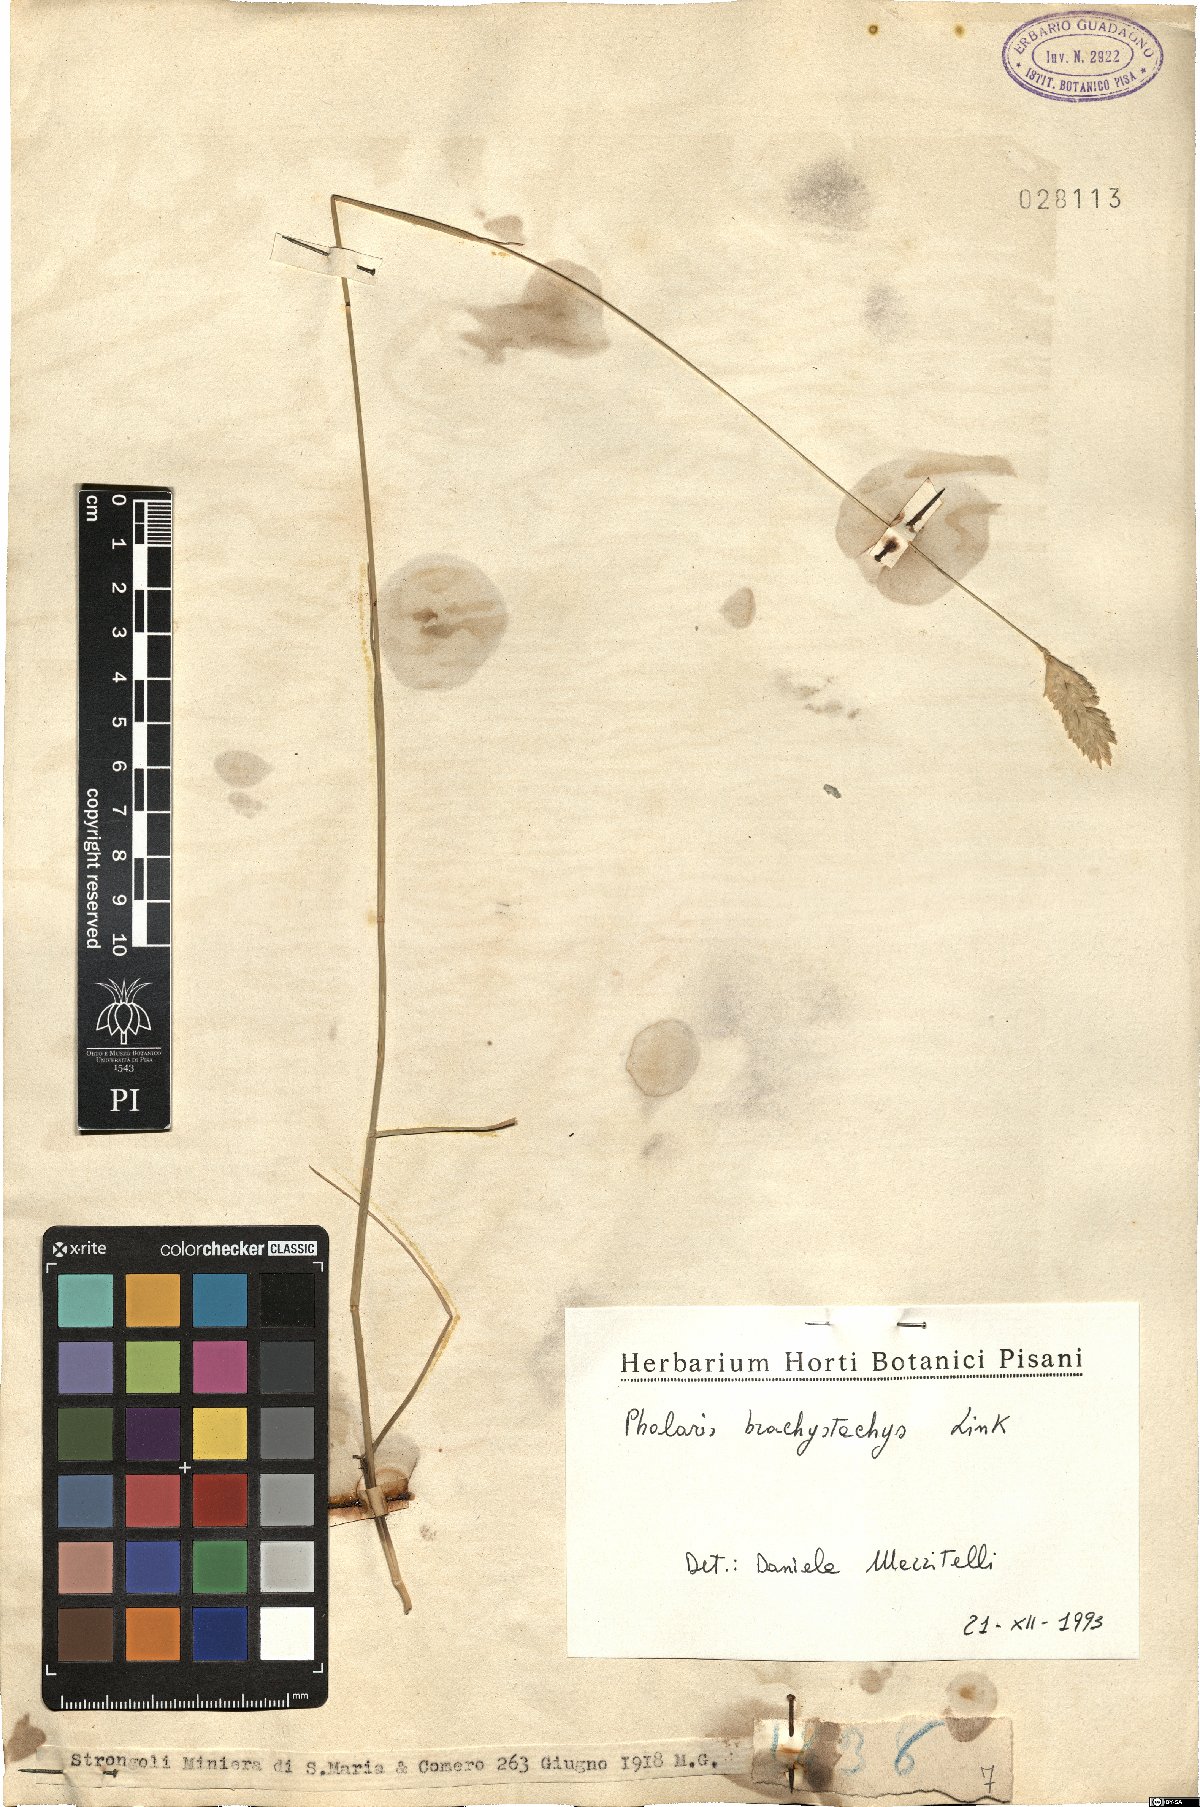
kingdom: Plantae
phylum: Tracheophyta
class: Liliopsida
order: Poales
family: Poaceae
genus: Phalaris
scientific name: Phalaris brachystachys
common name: Confused canary-grass
